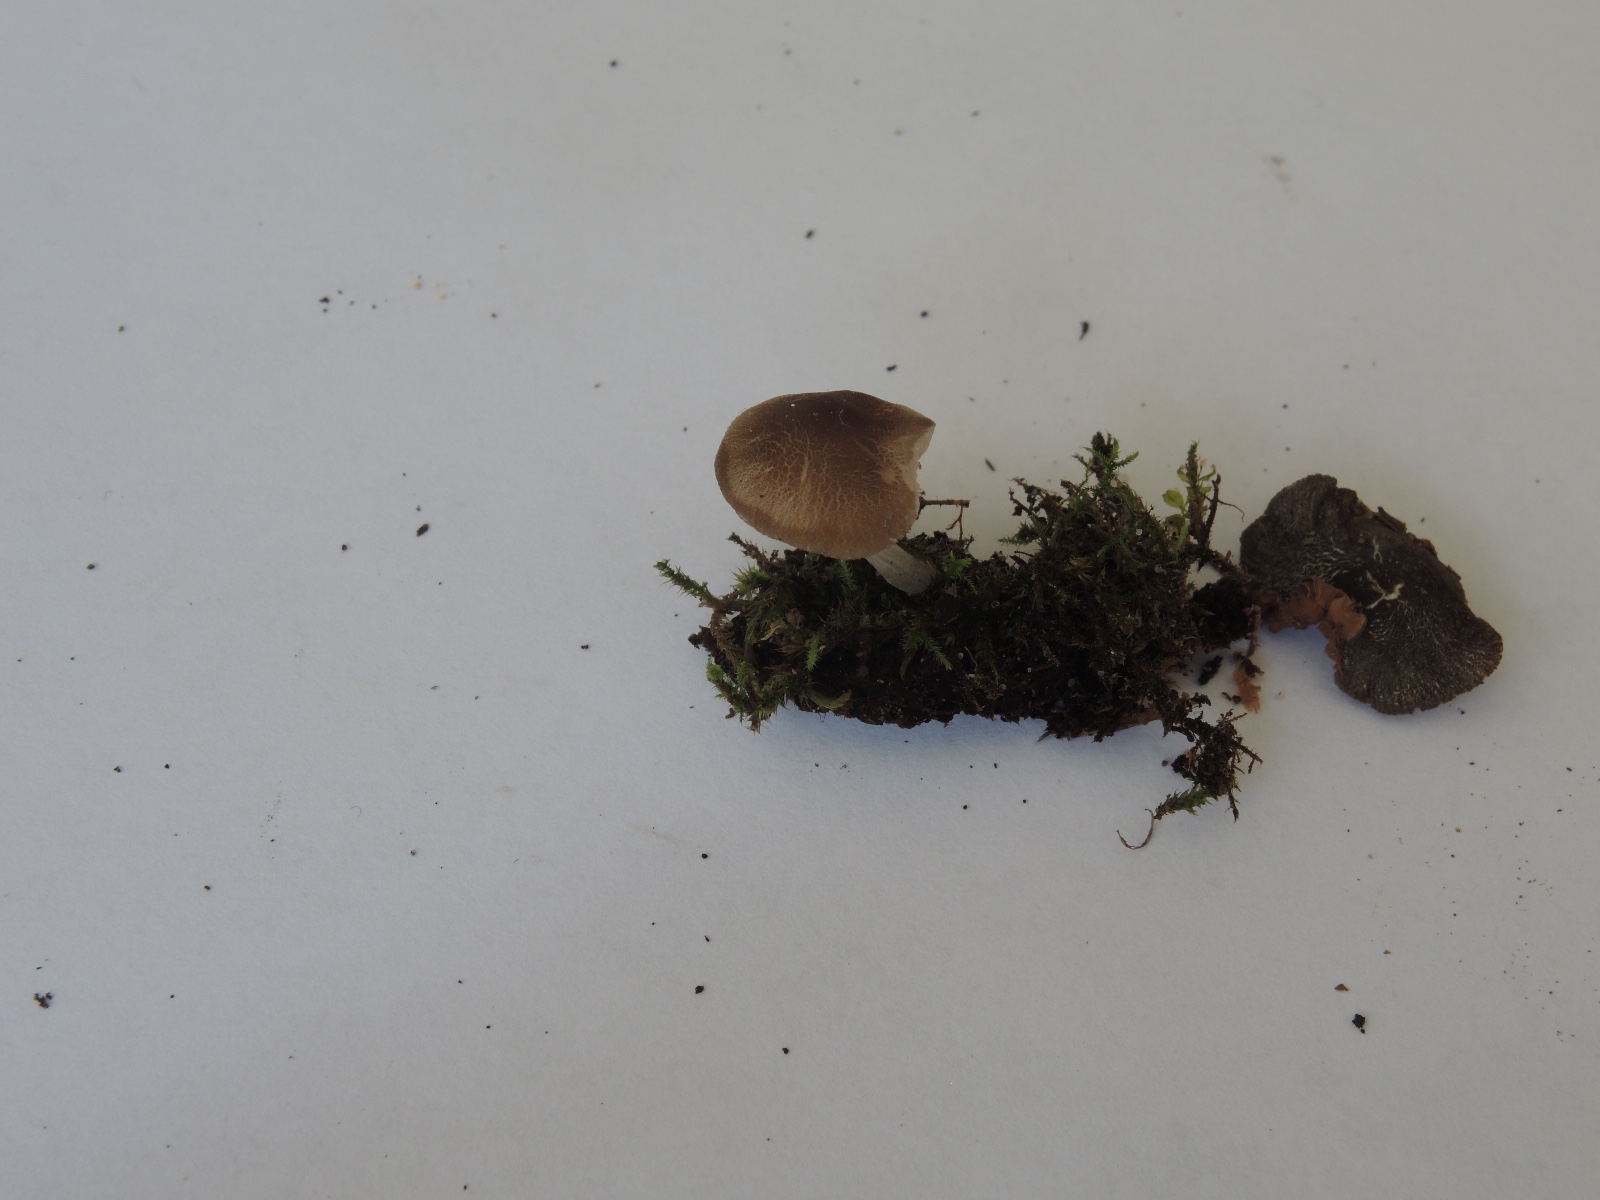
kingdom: Fungi
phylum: Basidiomycota
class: Agaricomycetes
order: Agaricales
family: Pluteaceae
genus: Pluteus
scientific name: Pluteus podospileus
